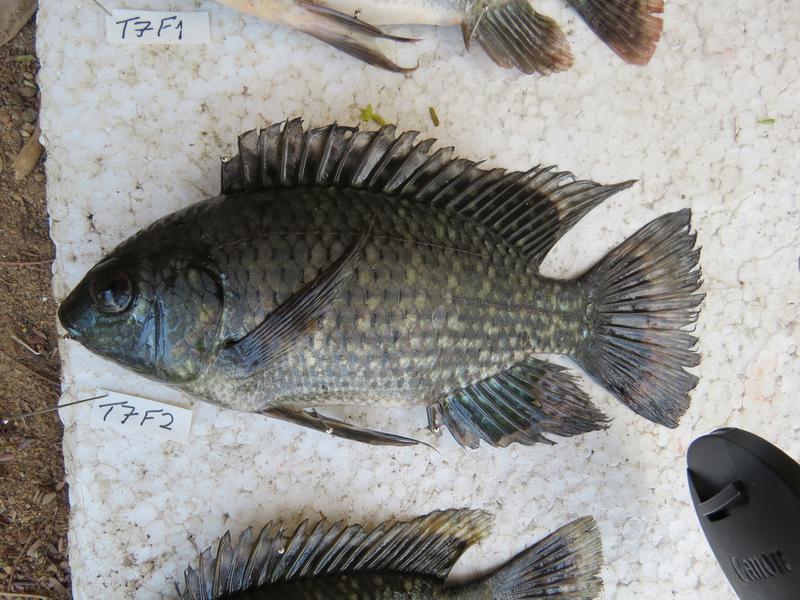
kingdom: Animalia
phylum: Chordata
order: Perciformes
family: Cichlidae
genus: Oreochromis
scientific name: Oreochromis leucostictus
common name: Blue spotted tilapia
